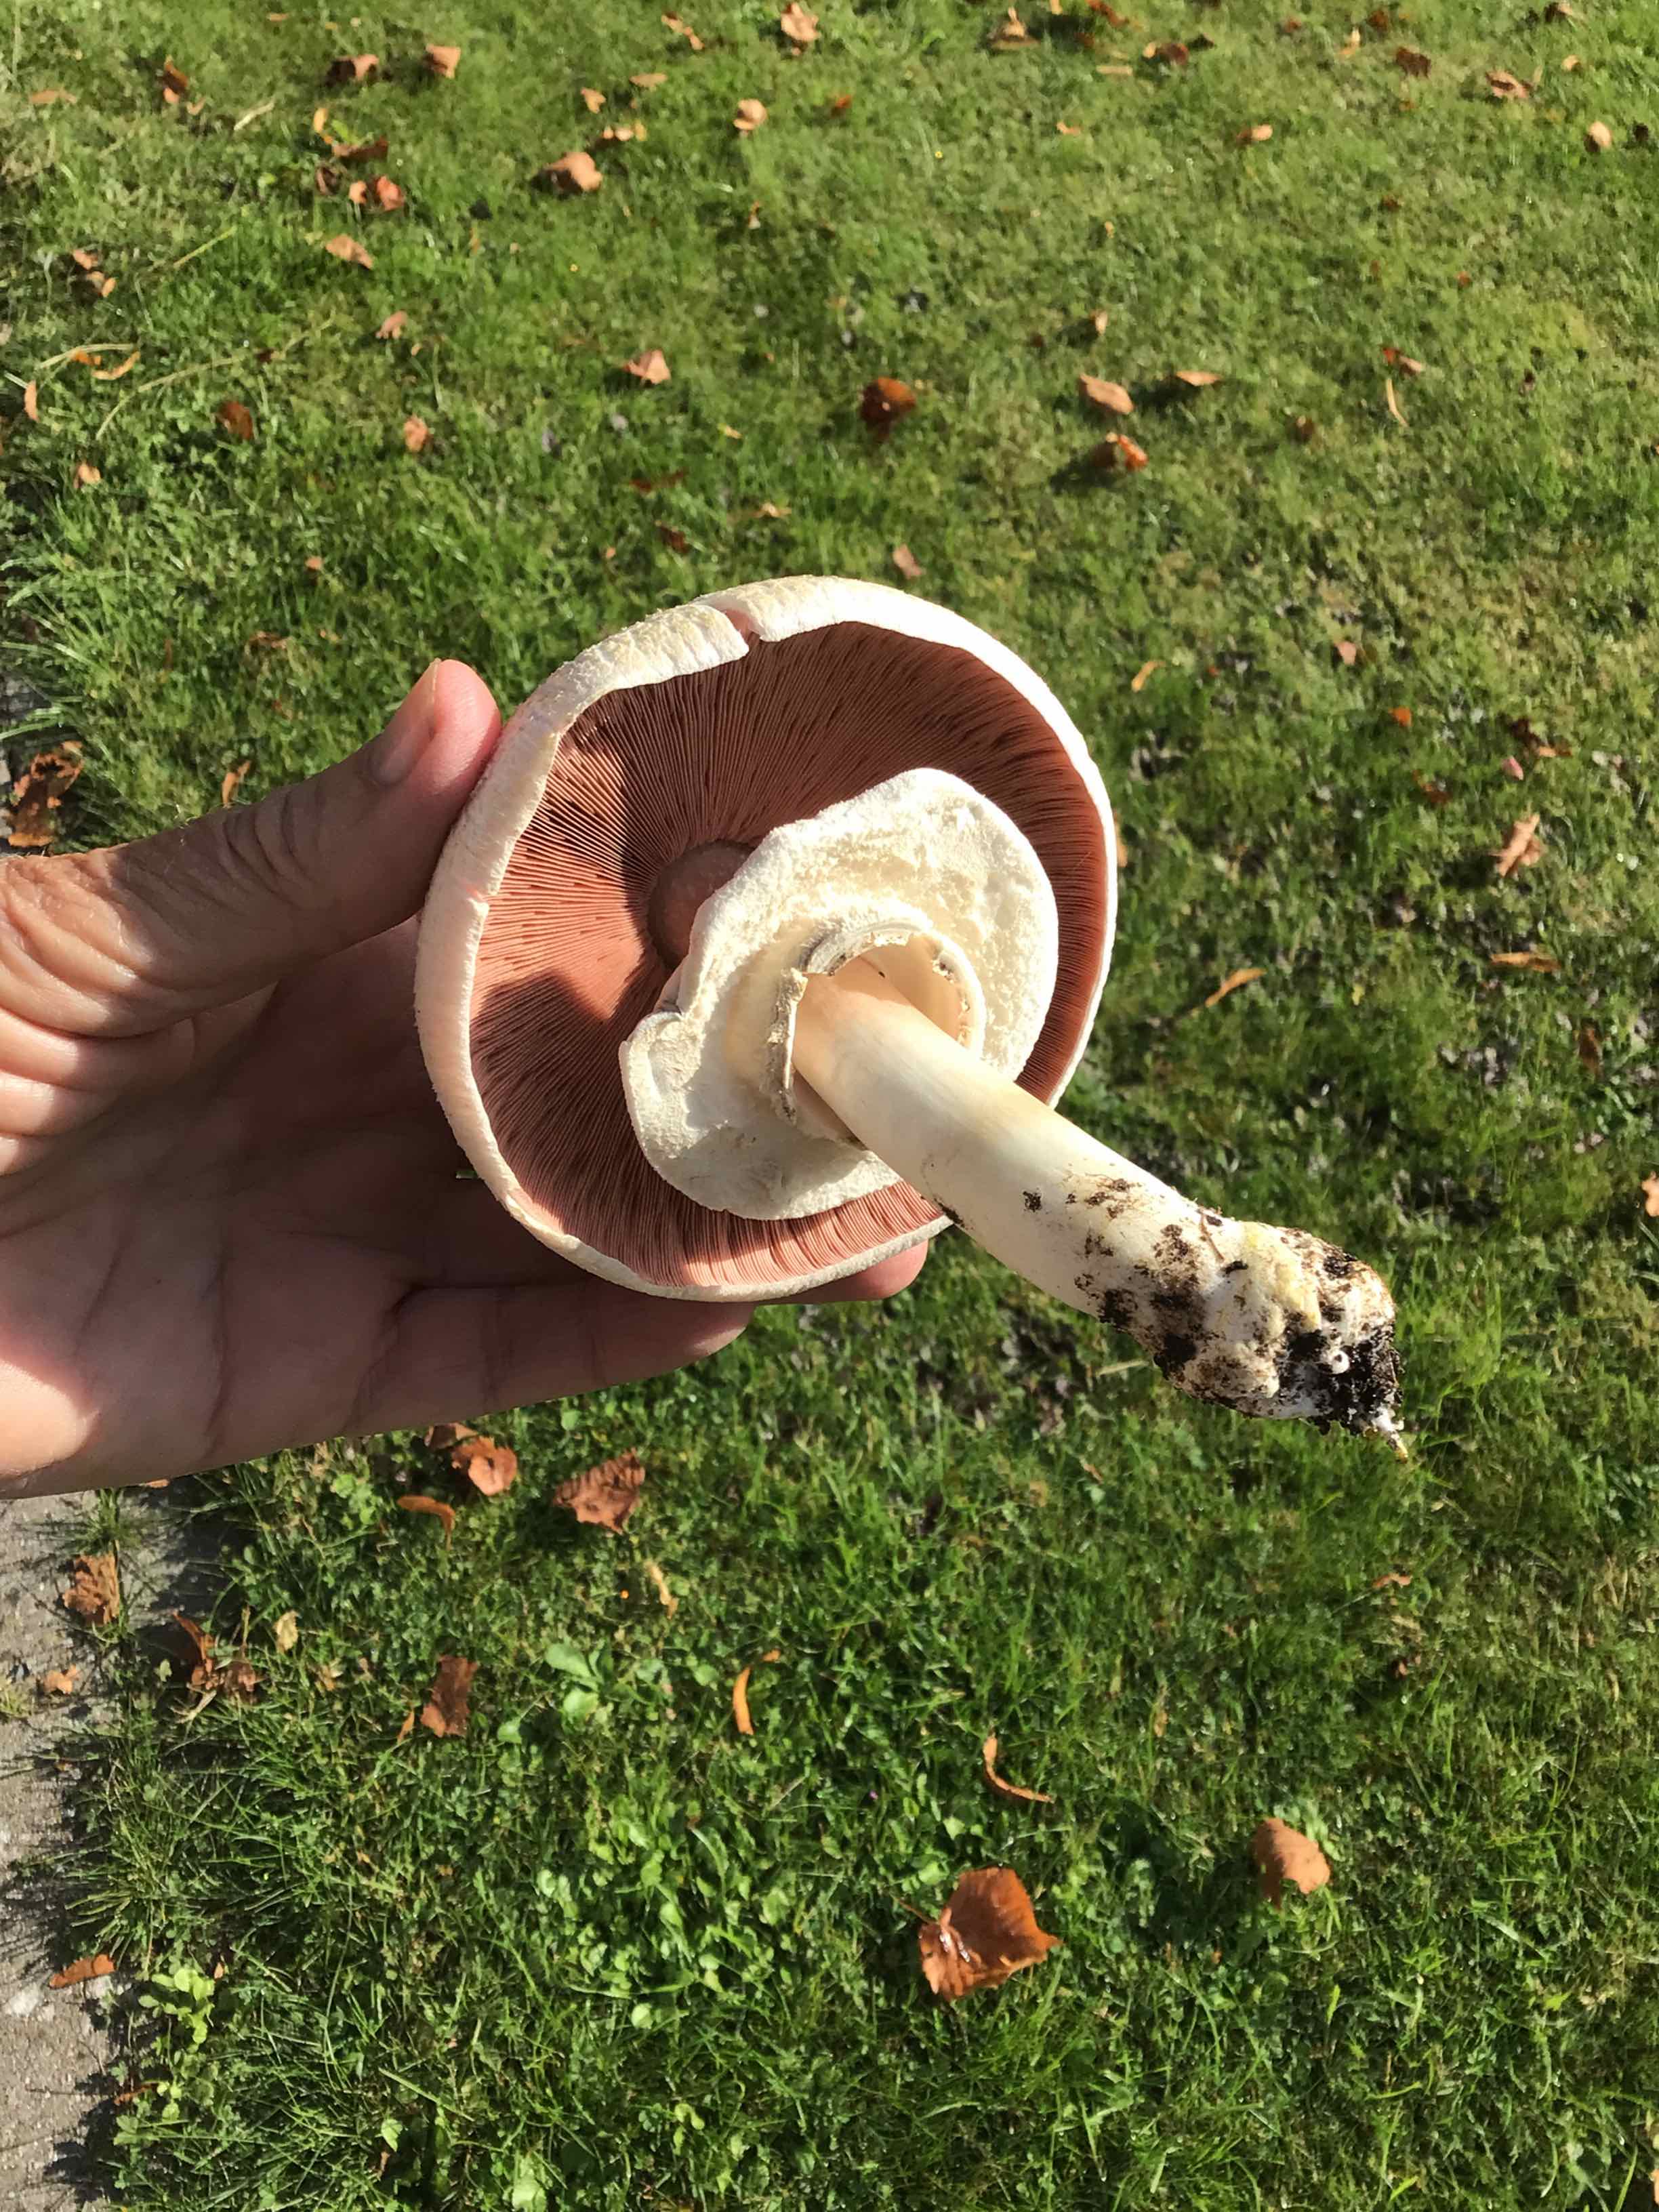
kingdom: Fungi
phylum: Basidiomycota
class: Agaricomycetes
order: Agaricales
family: Agaricaceae
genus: Agaricus
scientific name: Agaricus xanthodermus
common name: karbol-champignon
